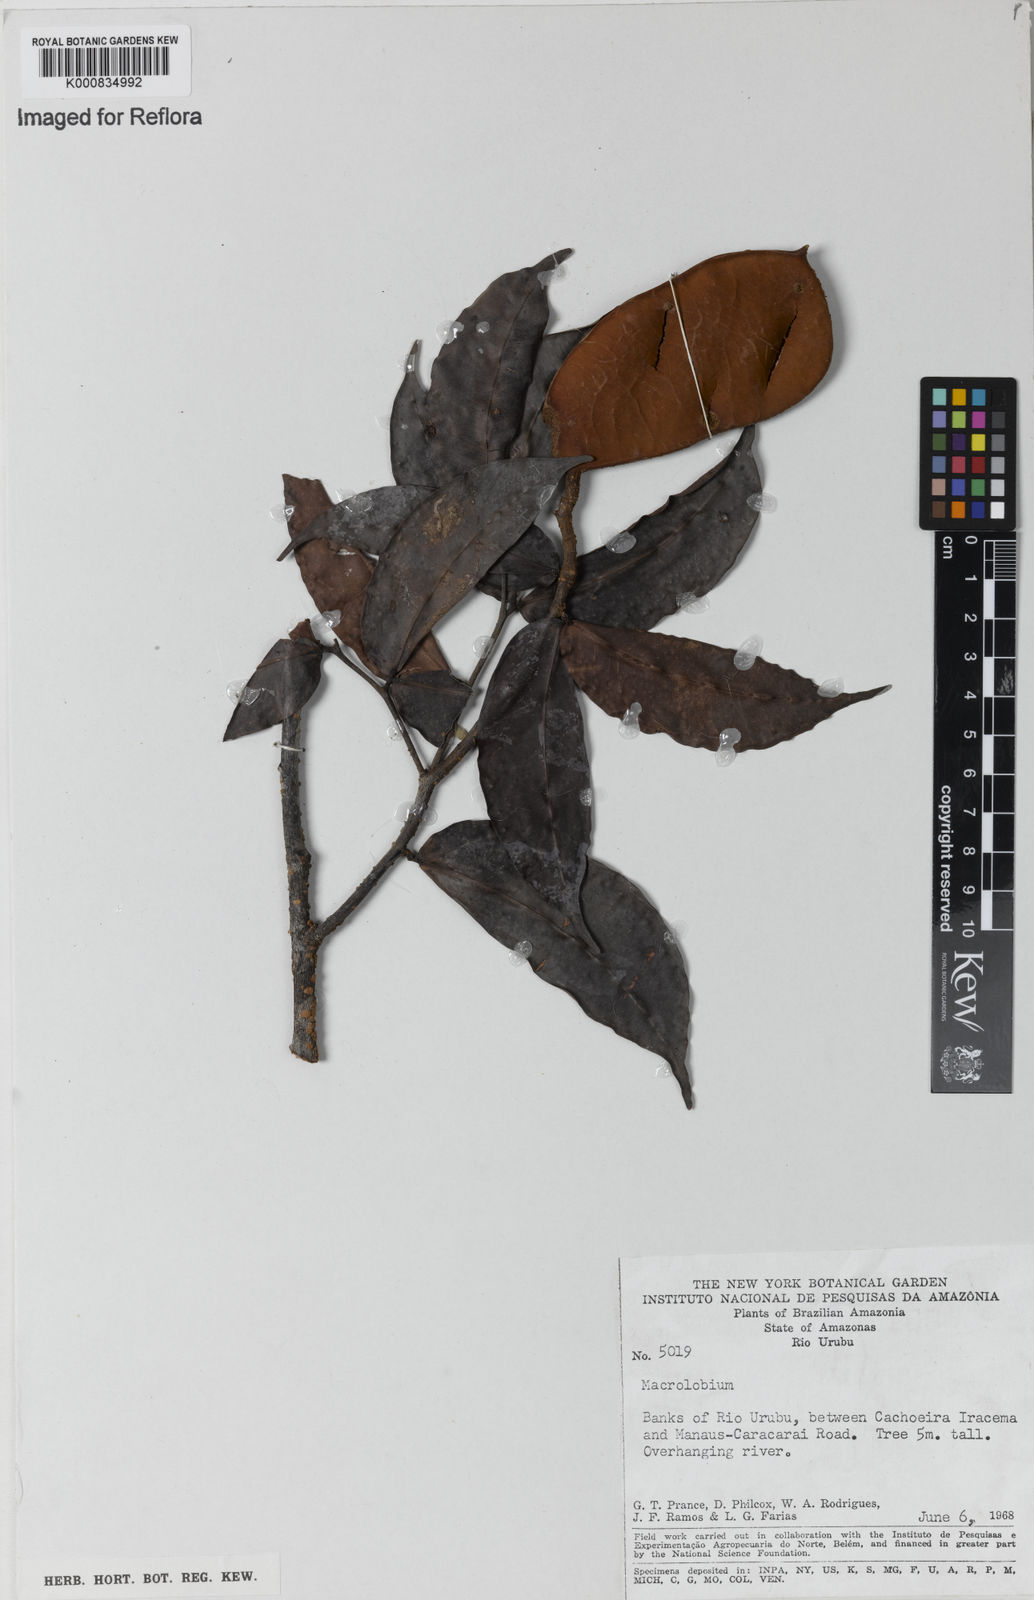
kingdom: Plantae
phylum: Tracheophyta
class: Magnoliopsida
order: Fabales
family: Fabaceae
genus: Macrolobium
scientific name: Macrolobium
